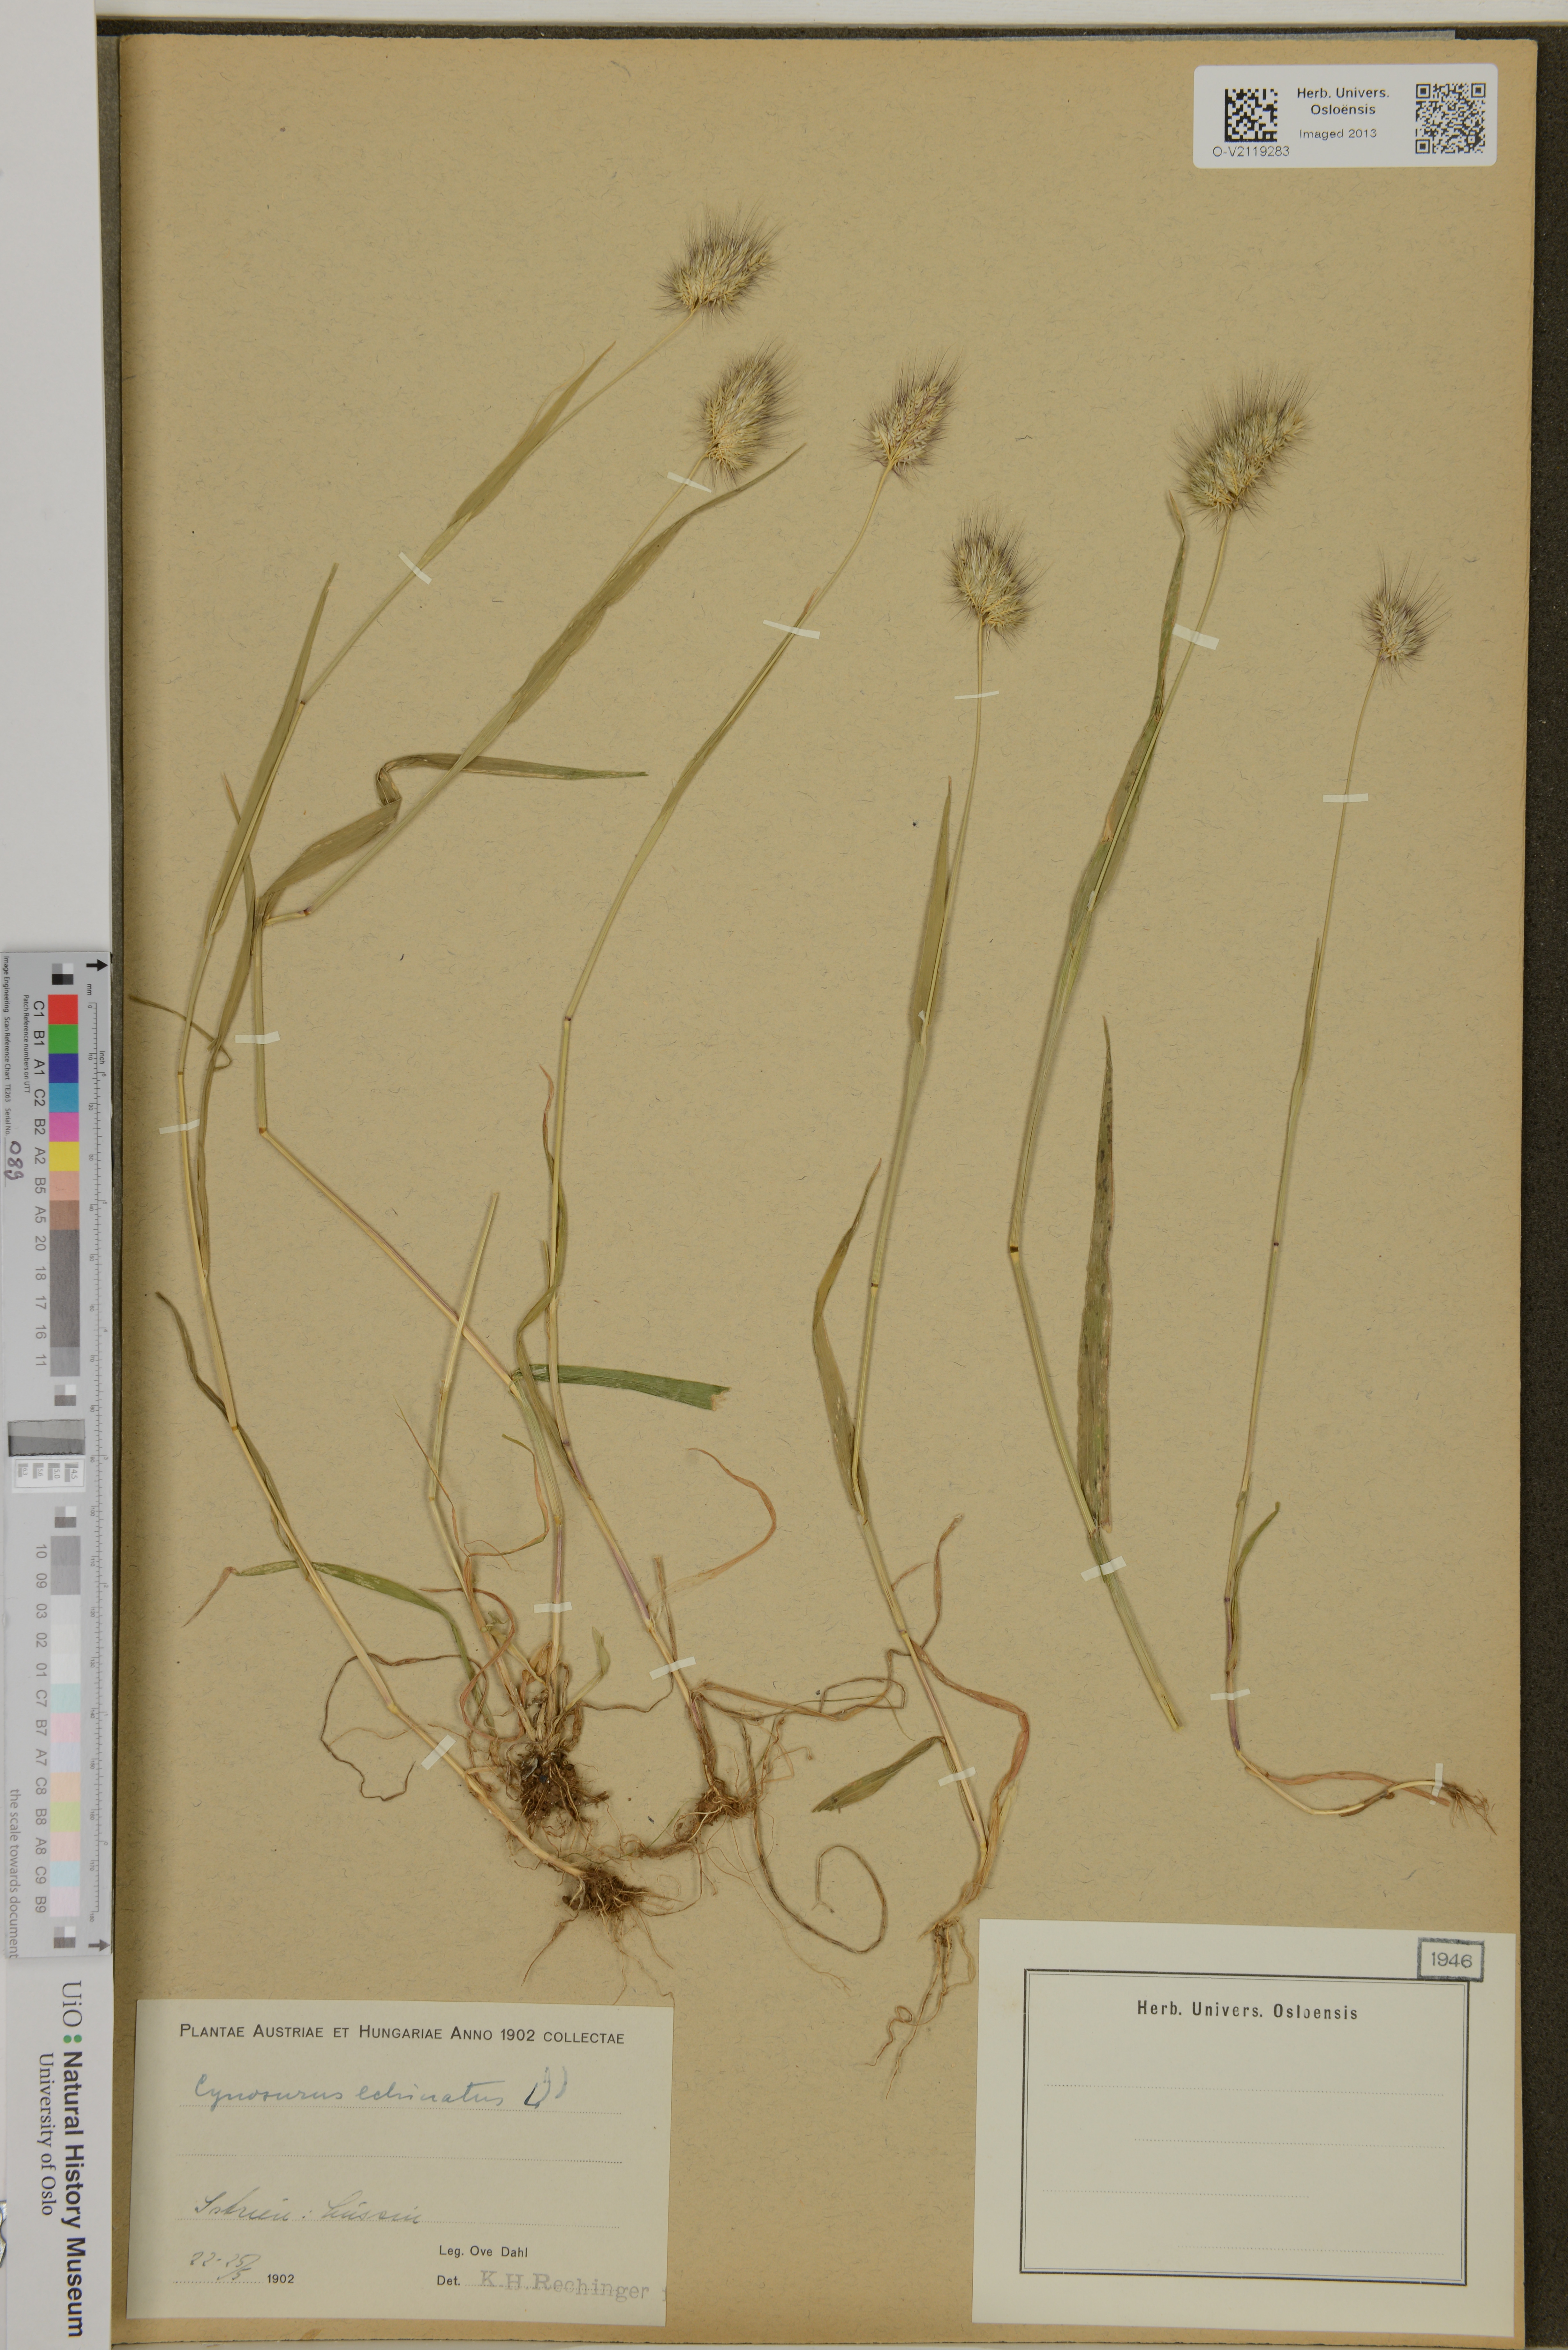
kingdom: Plantae
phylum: Tracheophyta
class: Liliopsida
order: Poales
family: Poaceae
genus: Cynosurus
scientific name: Cynosurus echinatus
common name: Rough dog's-tail
